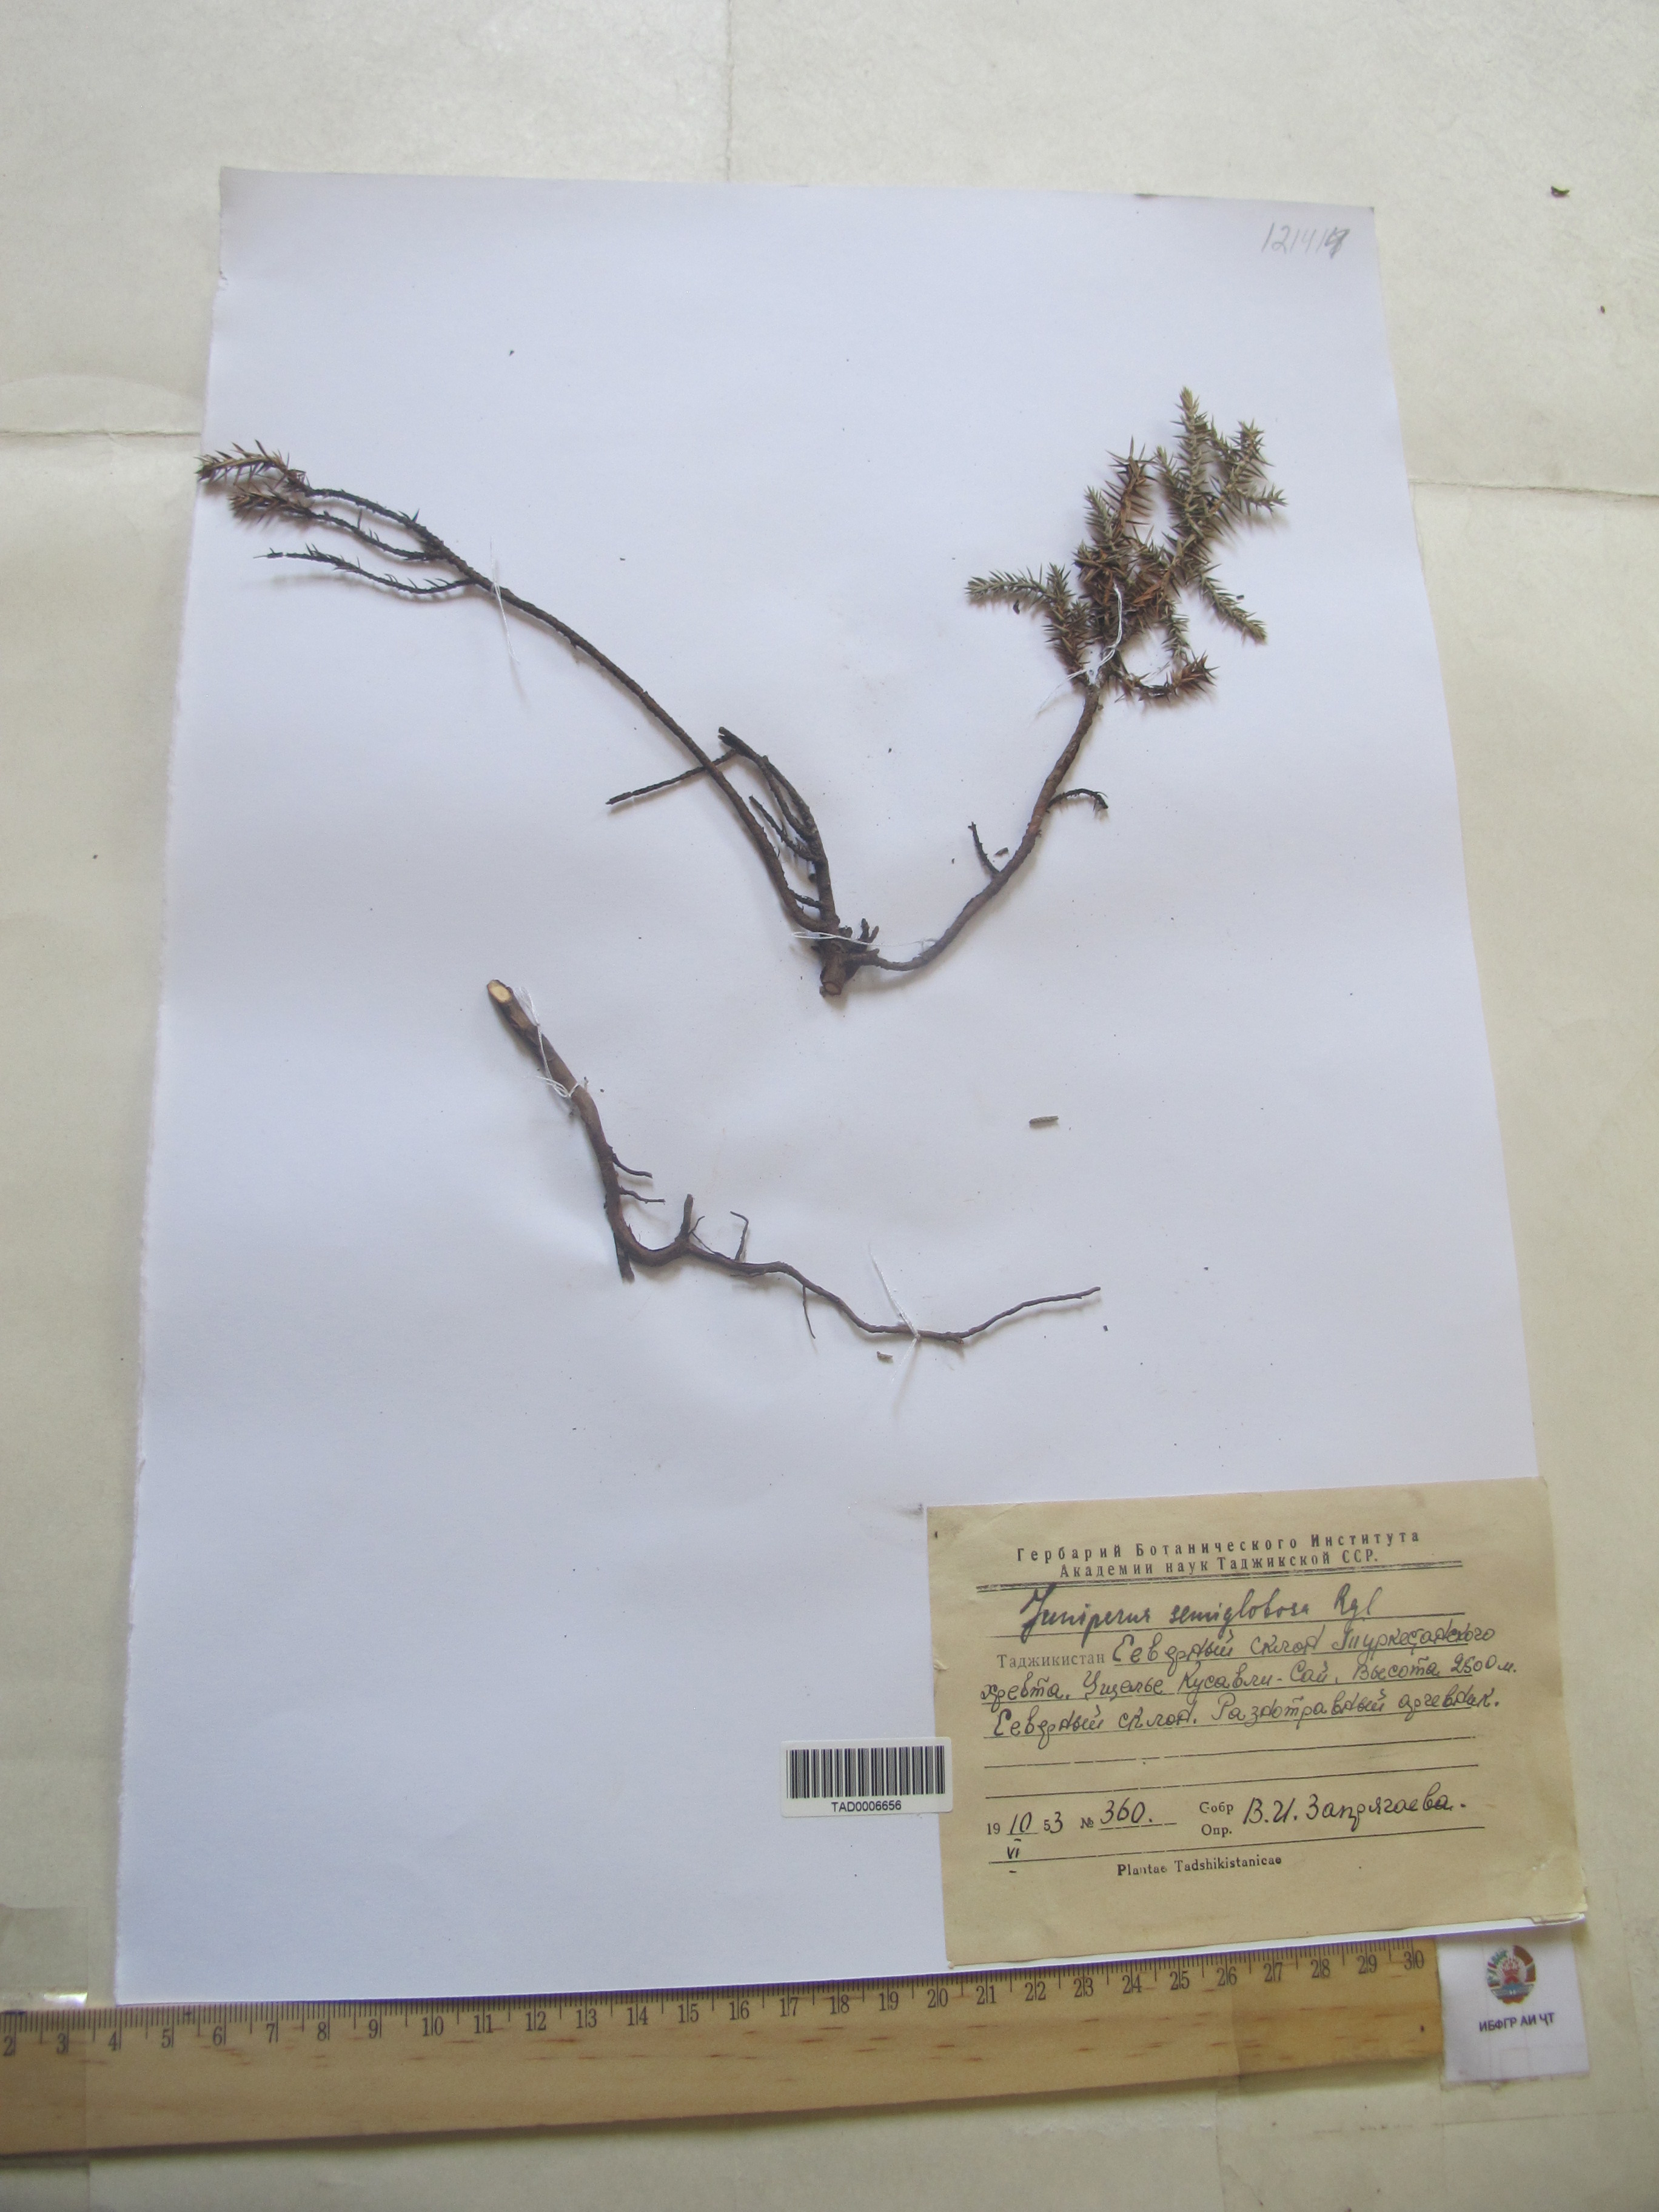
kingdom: Plantae
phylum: Tracheophyta
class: Pinopsida
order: Pinales
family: Cupressaceae
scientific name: Cupressaceae
